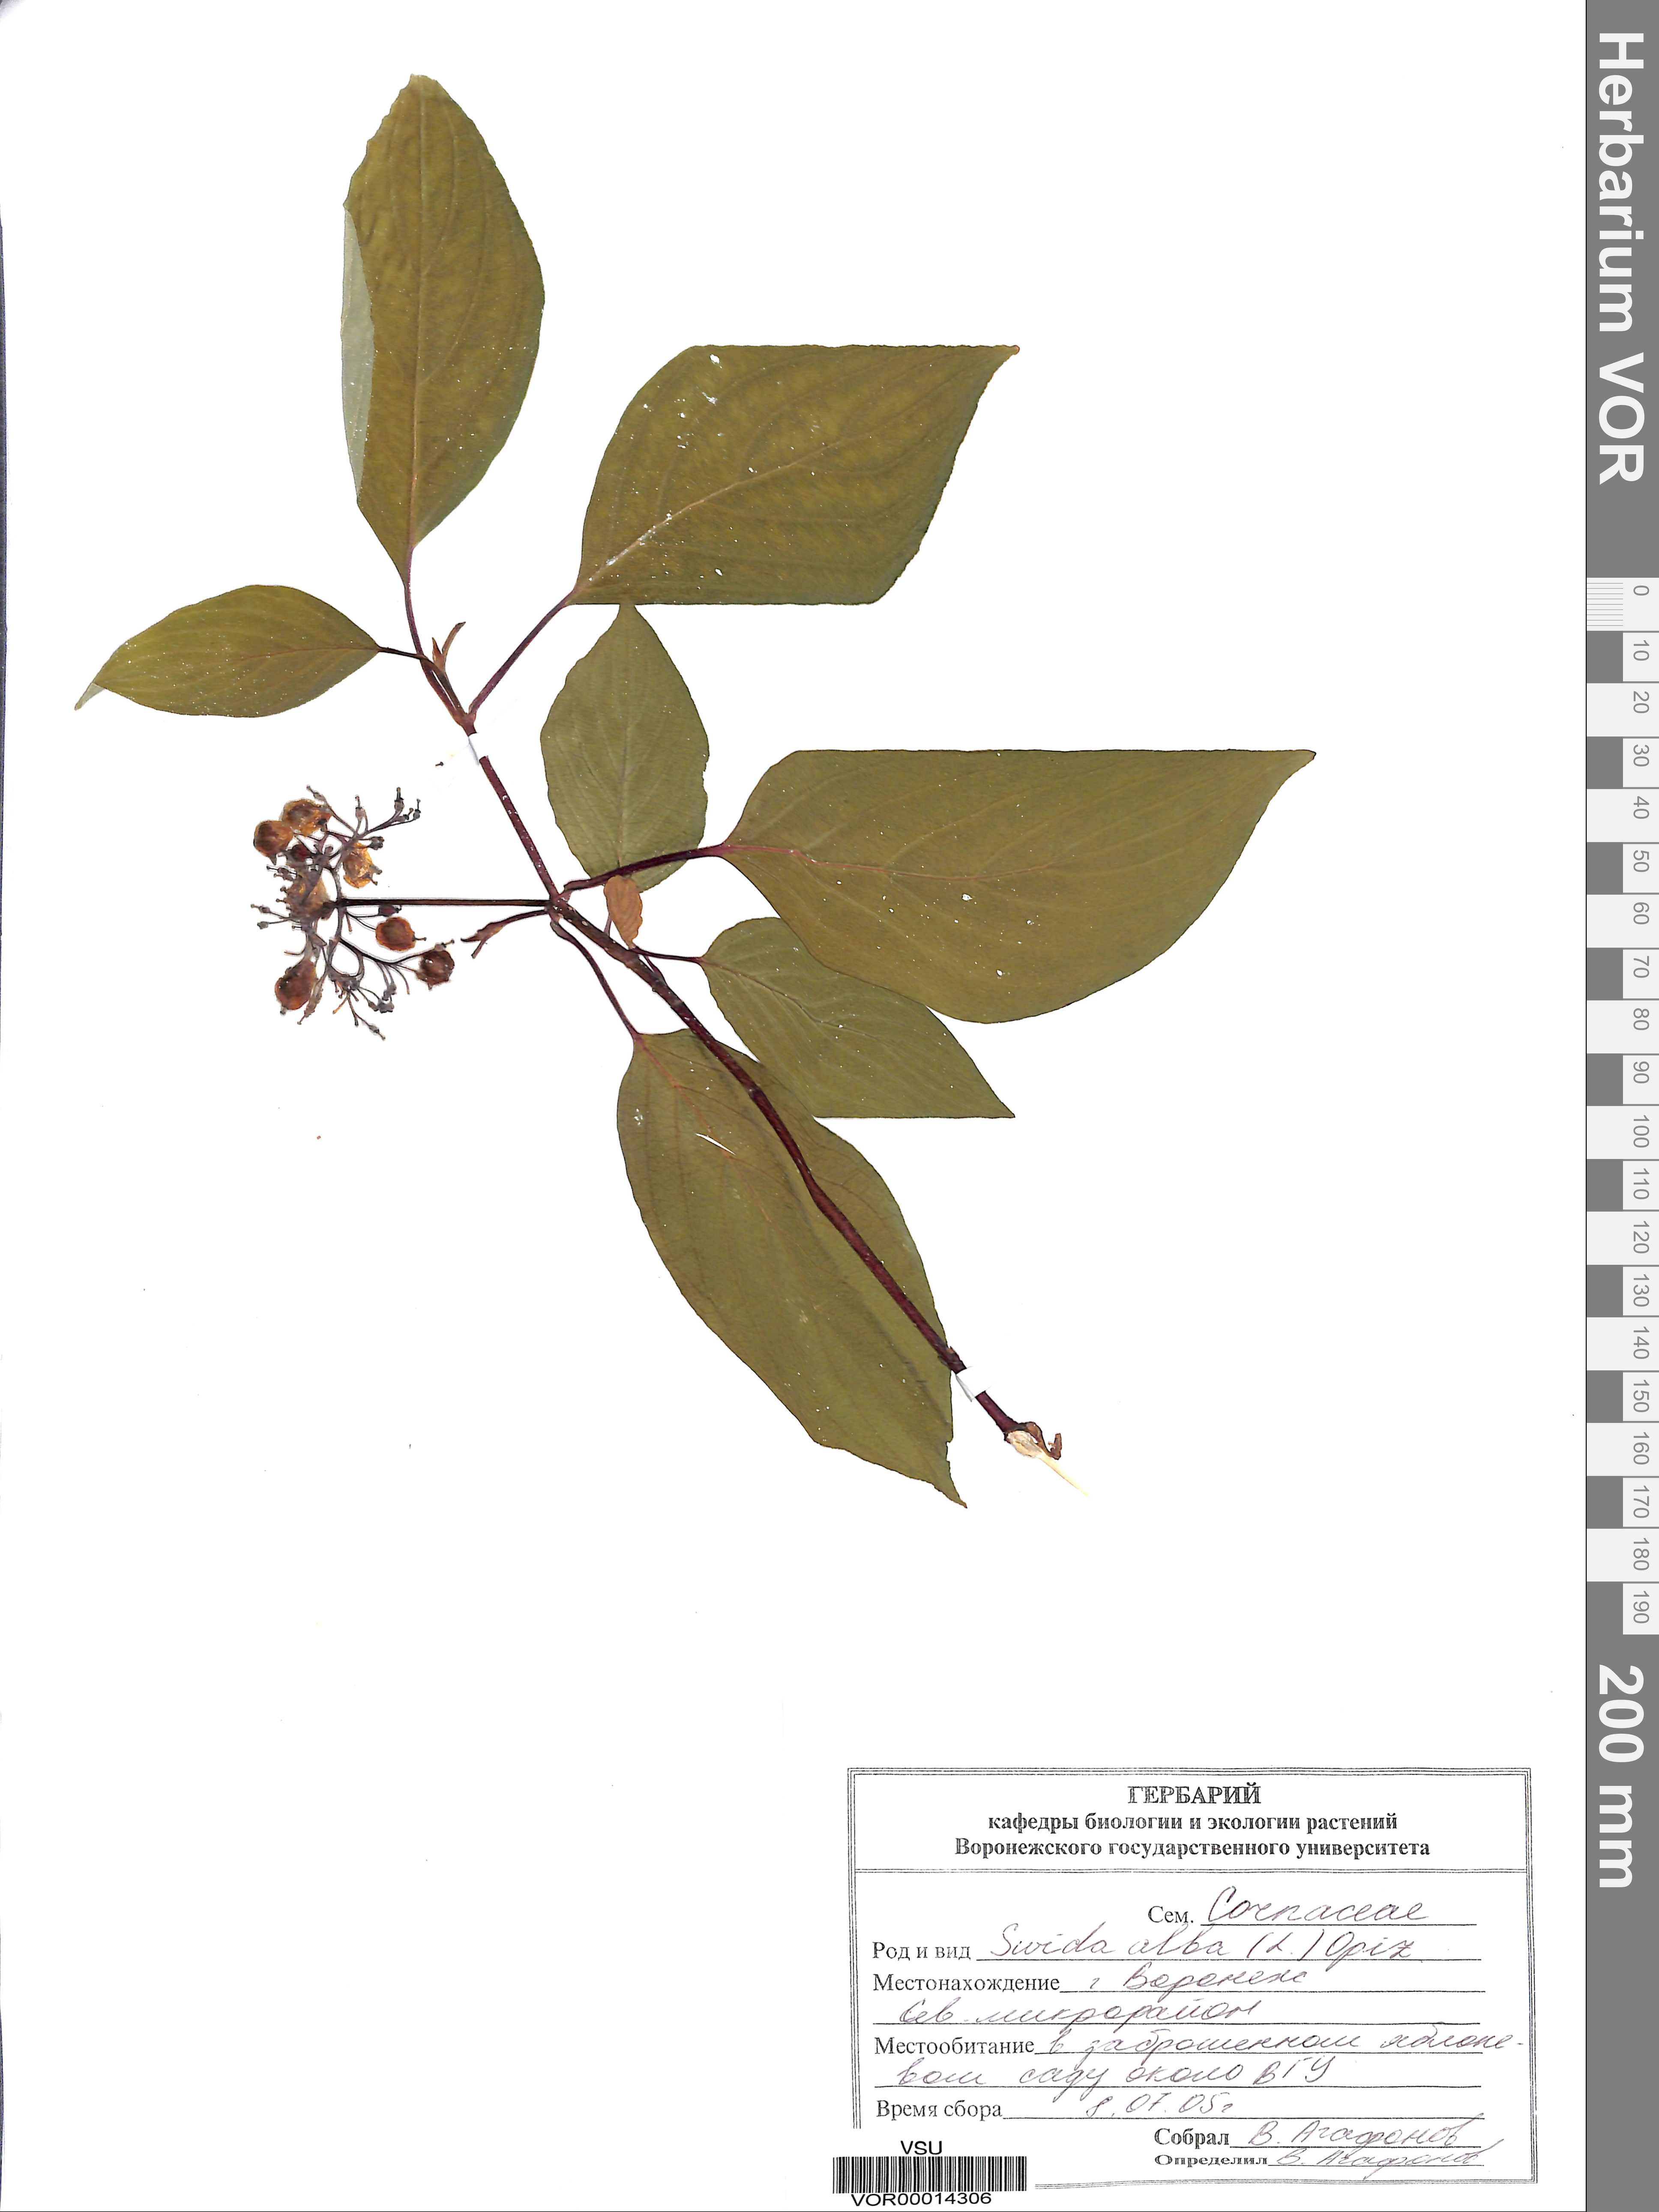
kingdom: Plantae
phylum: Tracheophyta
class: Magnoliopsida
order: Cornales
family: Cornaceae
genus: Cornus
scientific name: Cornus alba
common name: White dogwood
